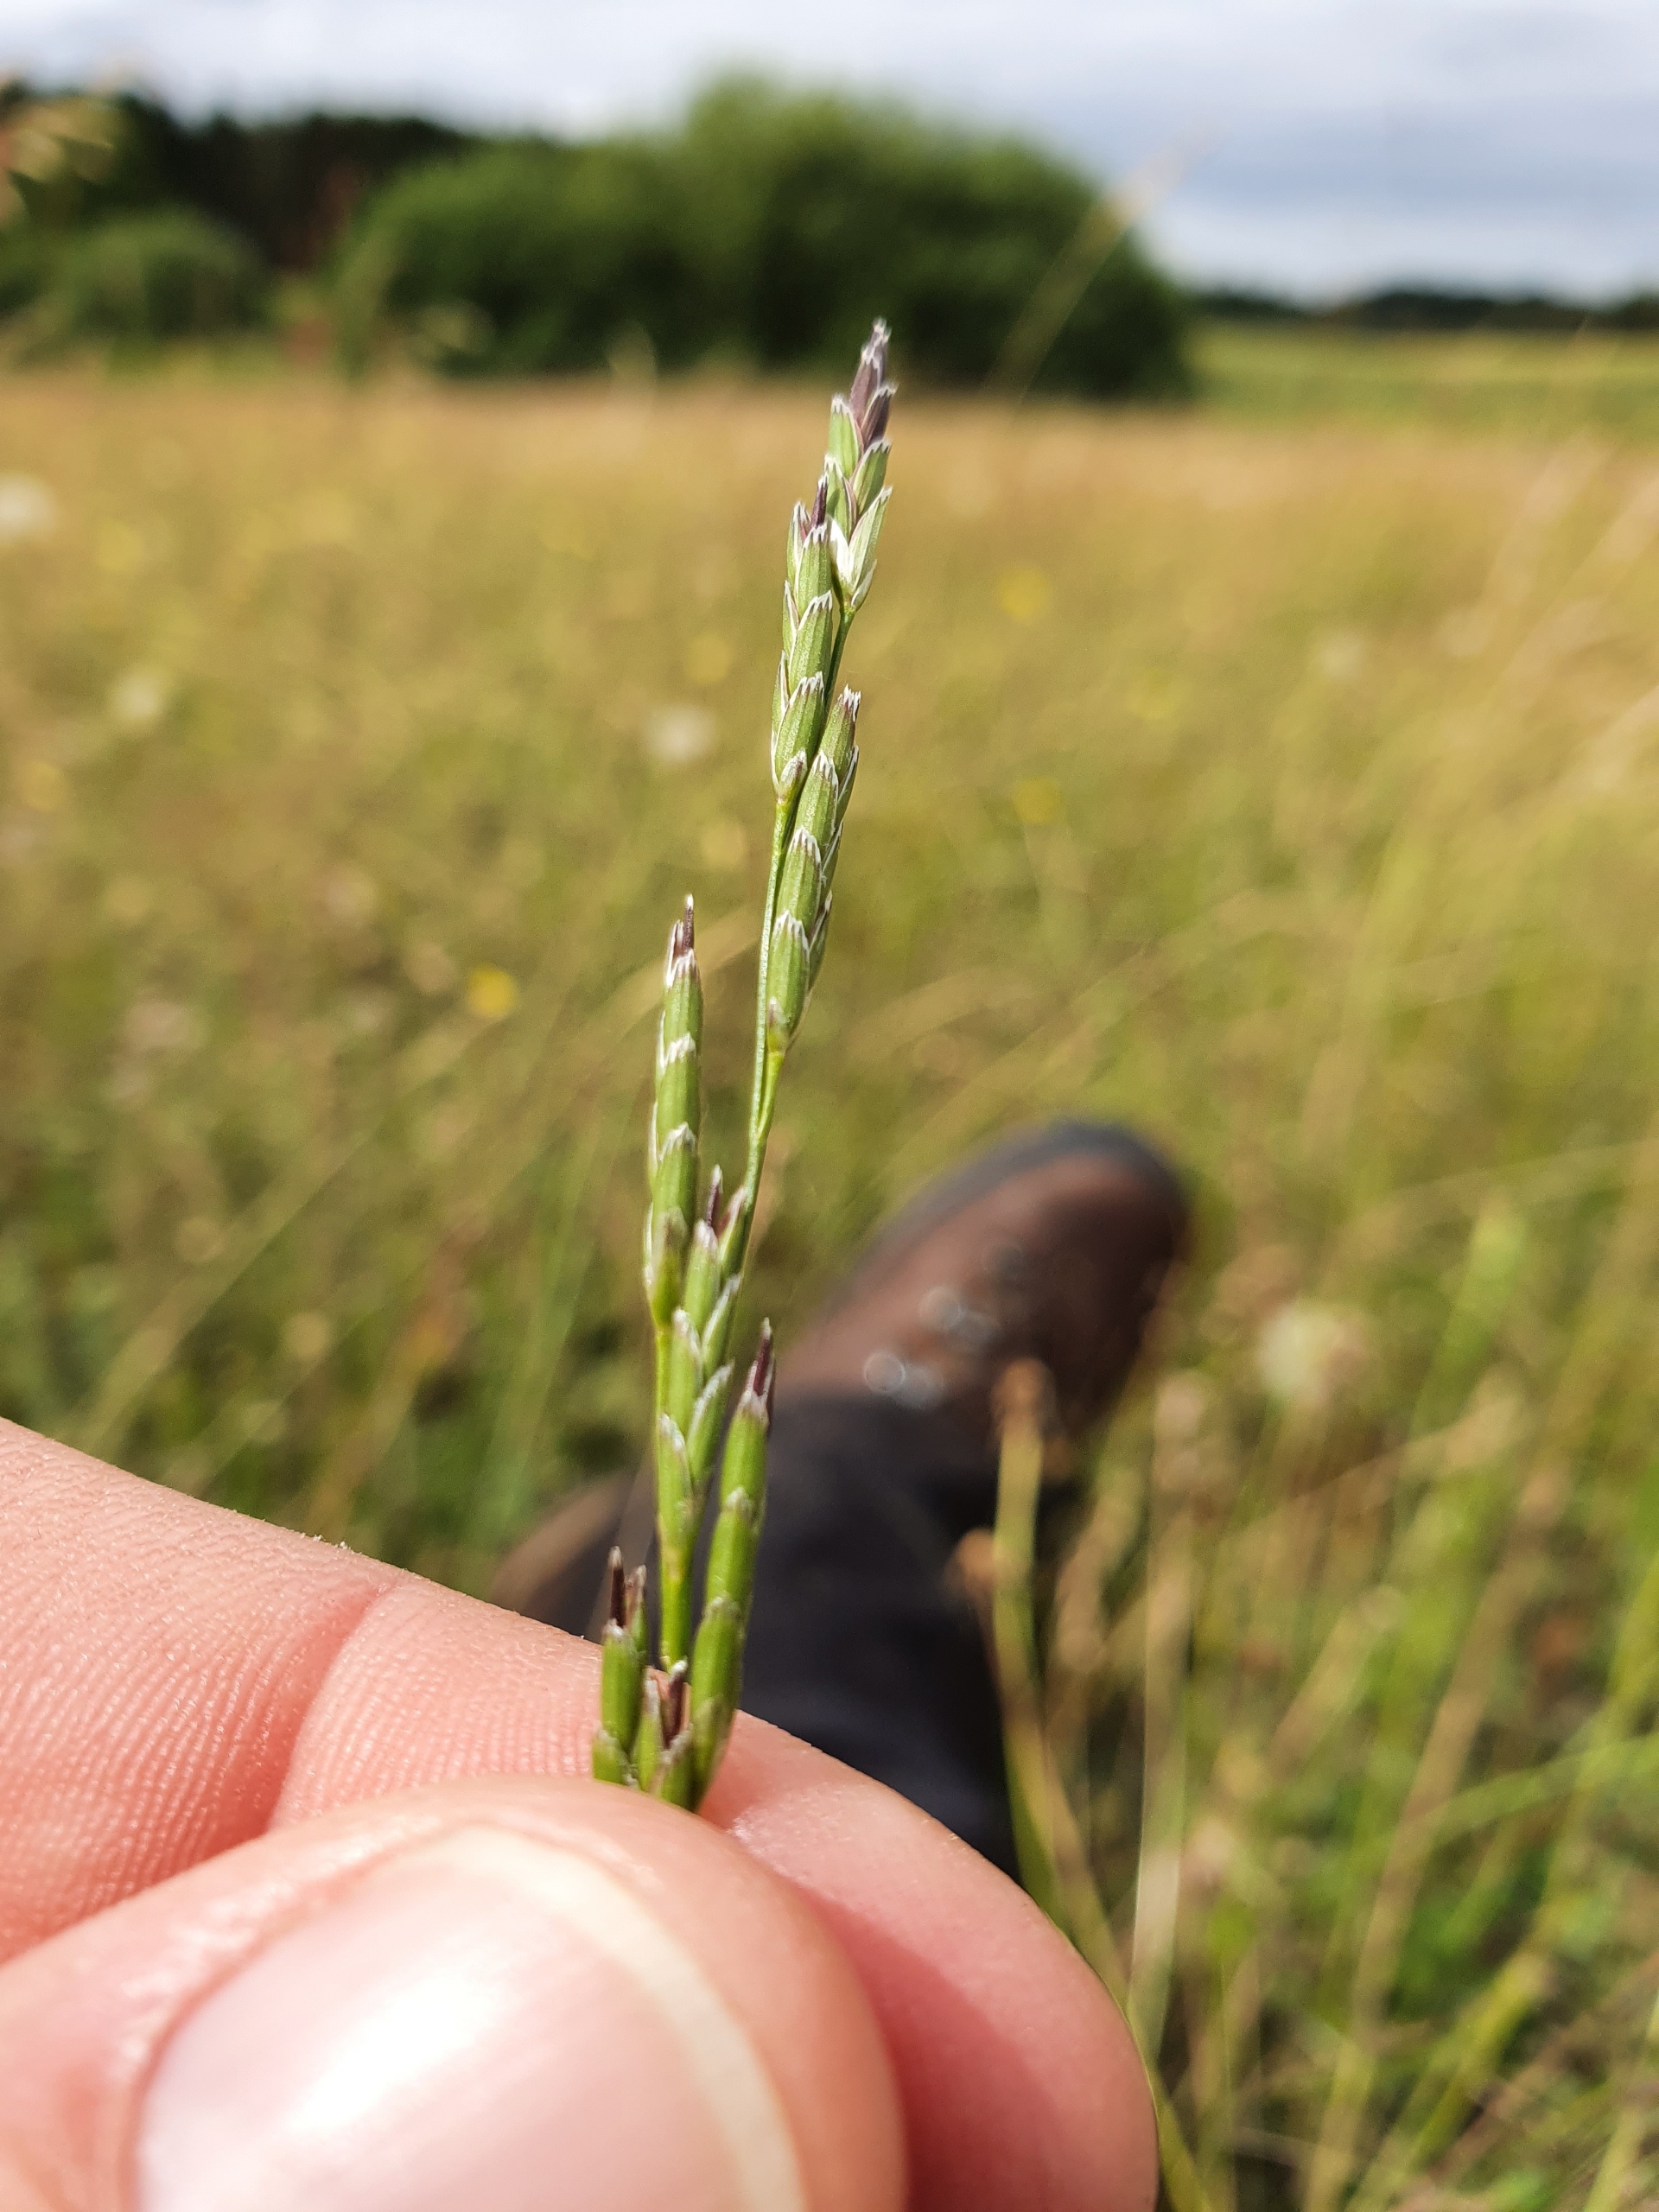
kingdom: Plantae
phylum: Tracheophyta
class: Liliopsida
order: Poales
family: Poaceae
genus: Glyceria
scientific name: Glyceria declinata
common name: Tandet sødgræs
